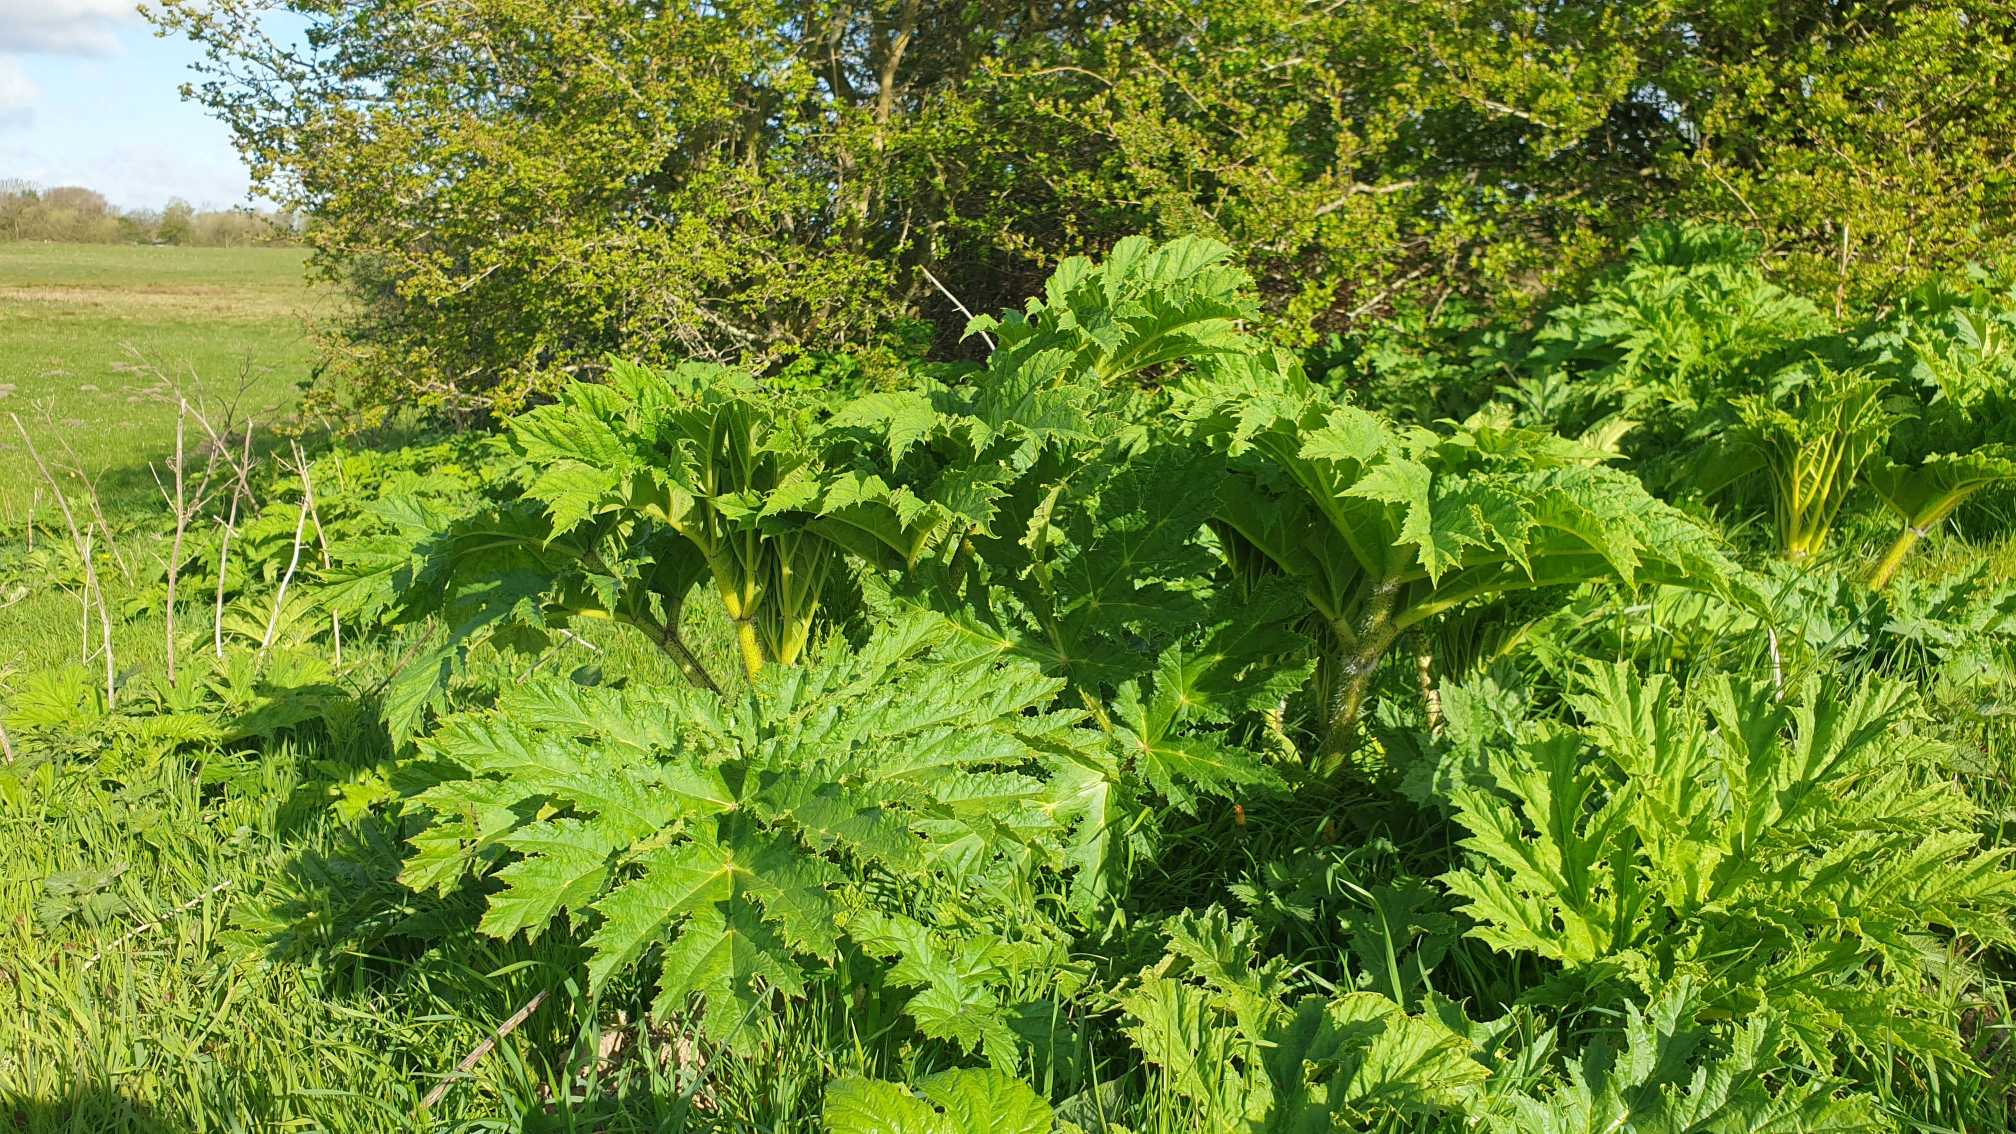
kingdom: Plantae
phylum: Tracheophyta
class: Magnoliopsida
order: Apiales
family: Apiaceae
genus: Heracleum
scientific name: Heracleum mantegazzianum
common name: Kæmpe-bjørneklo
